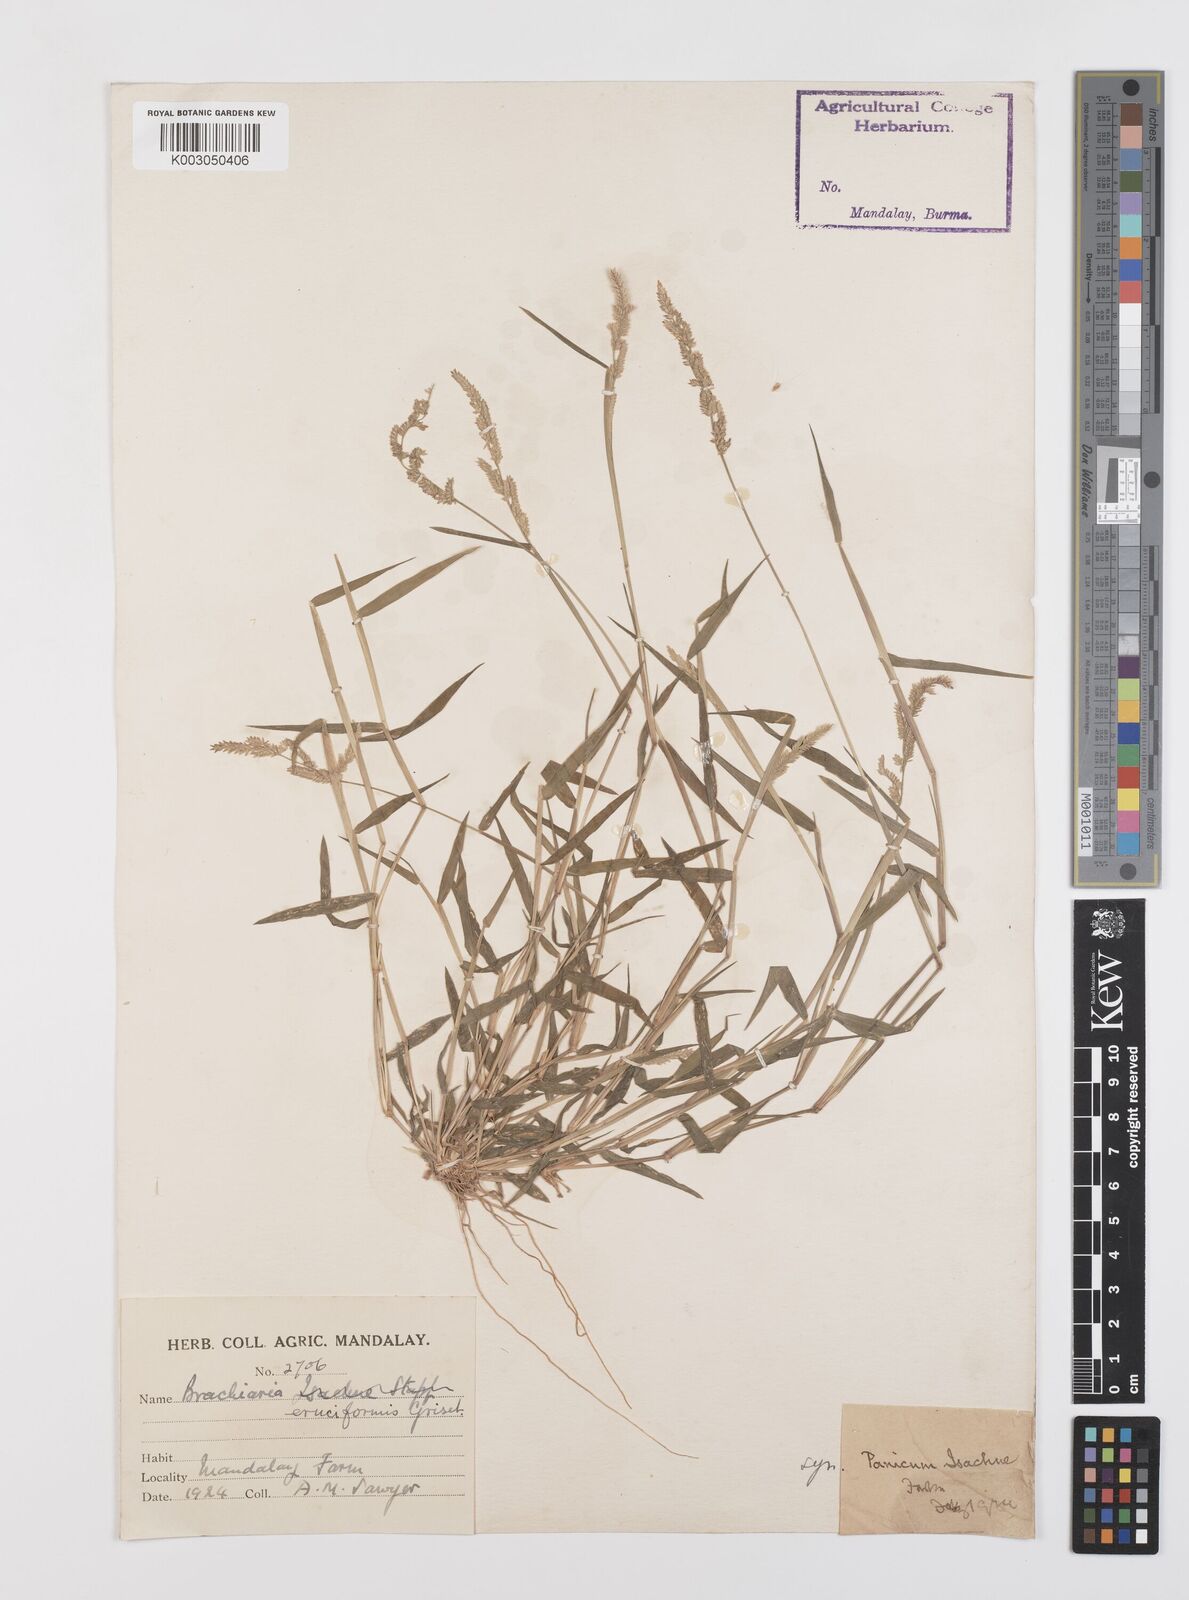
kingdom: Plantae
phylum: Tracheophyta
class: Liliopsida
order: Poales
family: Poaceae
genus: Moorochloa
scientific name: Moorochloa eruciformis
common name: Sweet signalgrass
